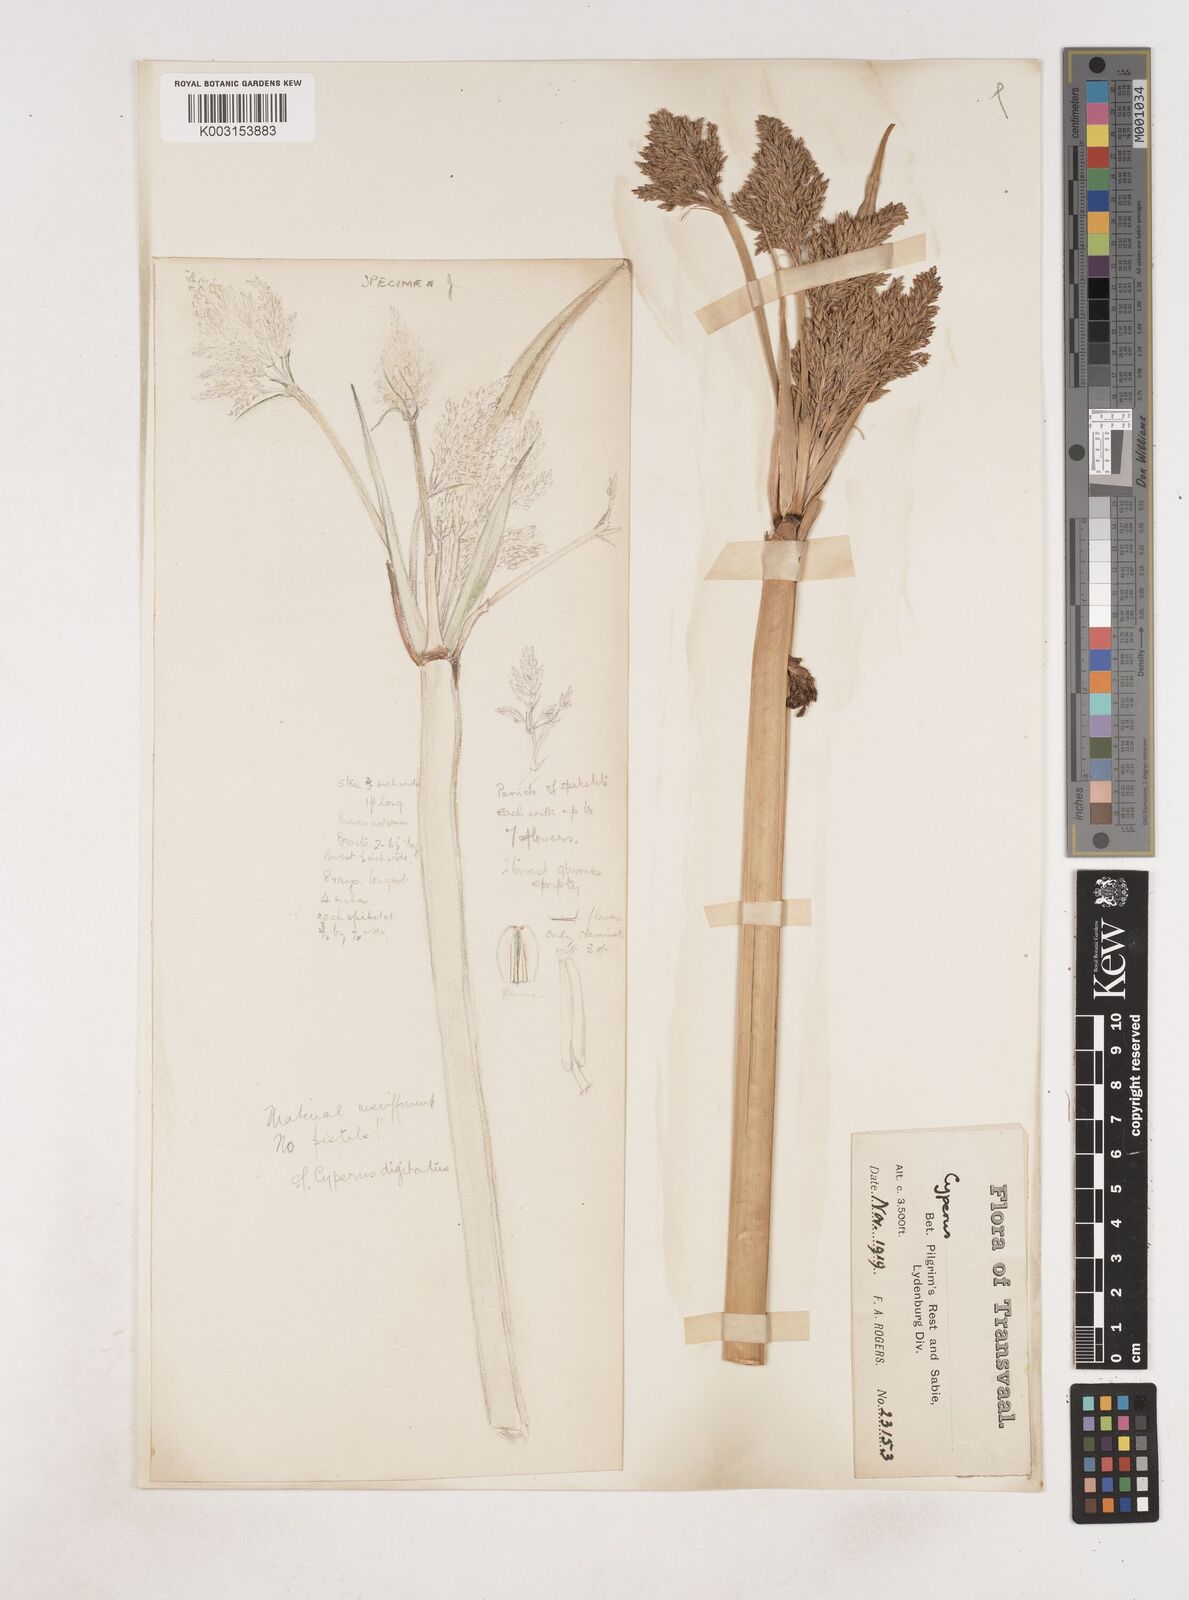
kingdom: Plantae
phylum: Tracheophyta
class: Liliopsida
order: Poales
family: Cyperaceae
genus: Cyperus
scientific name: Cyperus
